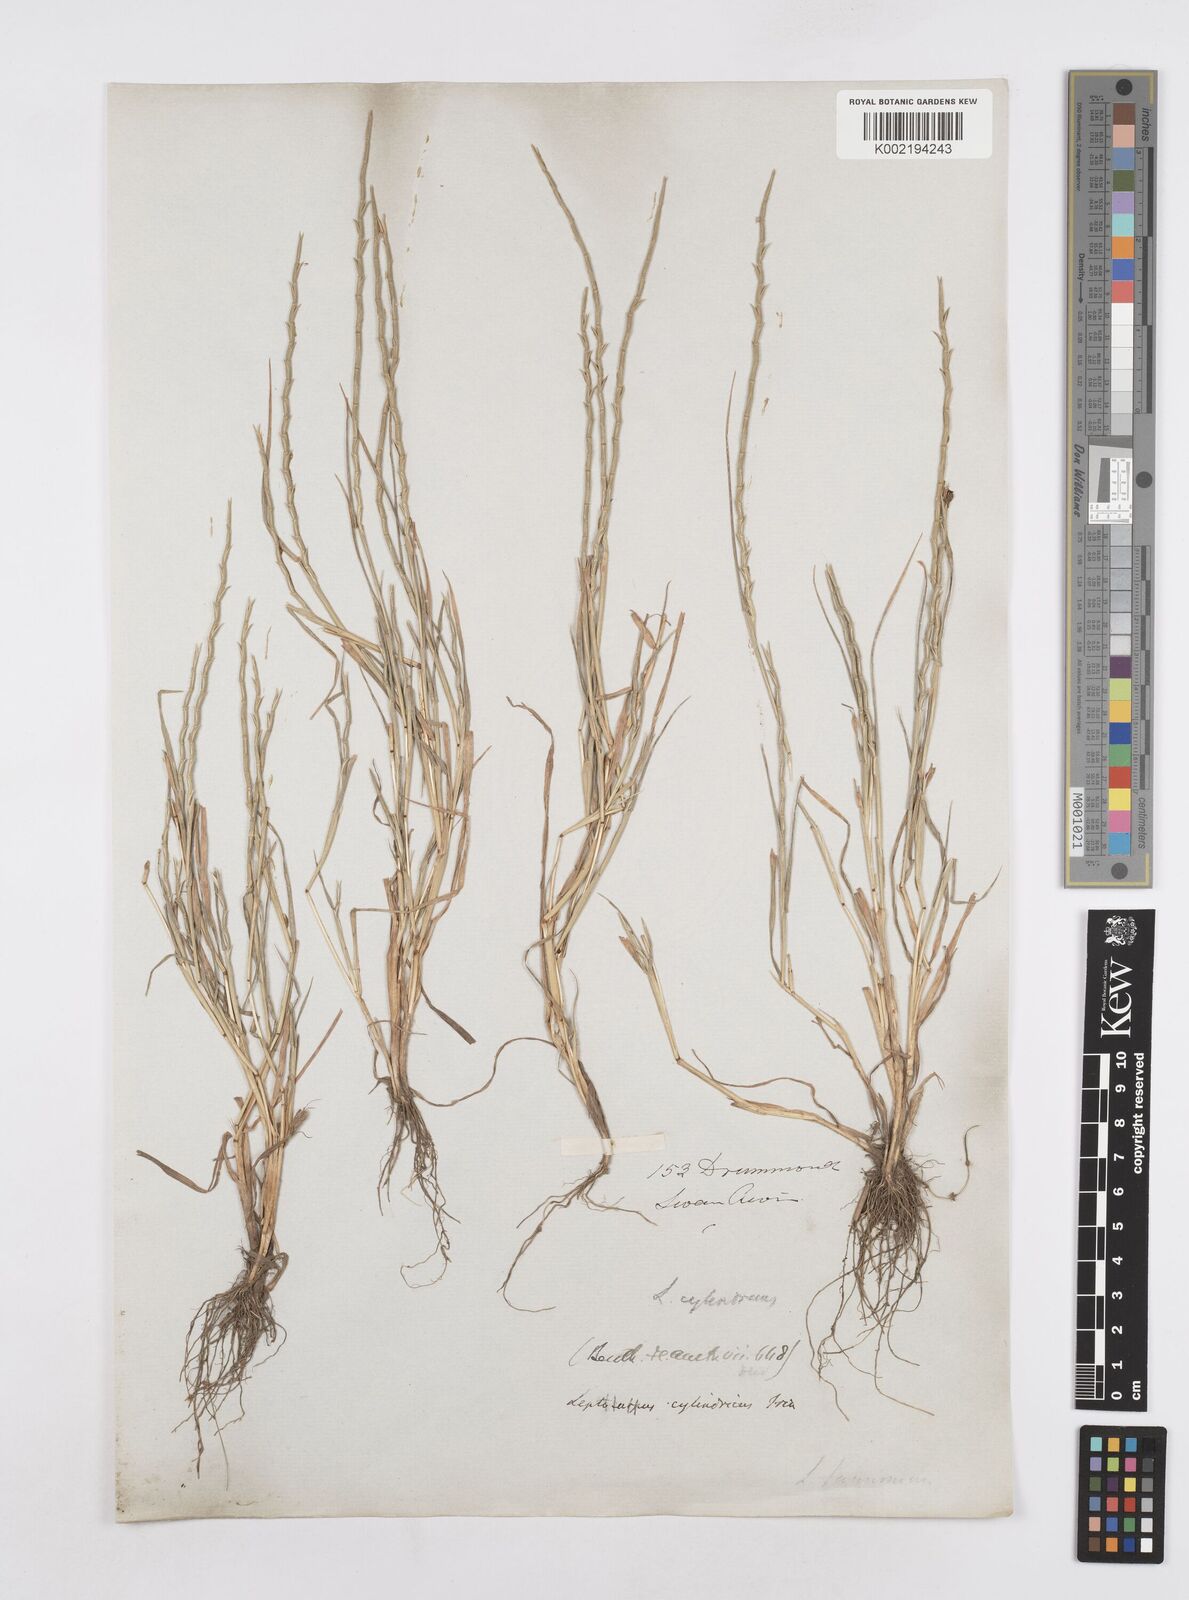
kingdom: Plantae
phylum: Tracheophyta
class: Liliopsida
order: Poales
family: Poaceae
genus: Parapholis
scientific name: Parapholis cylindrica
